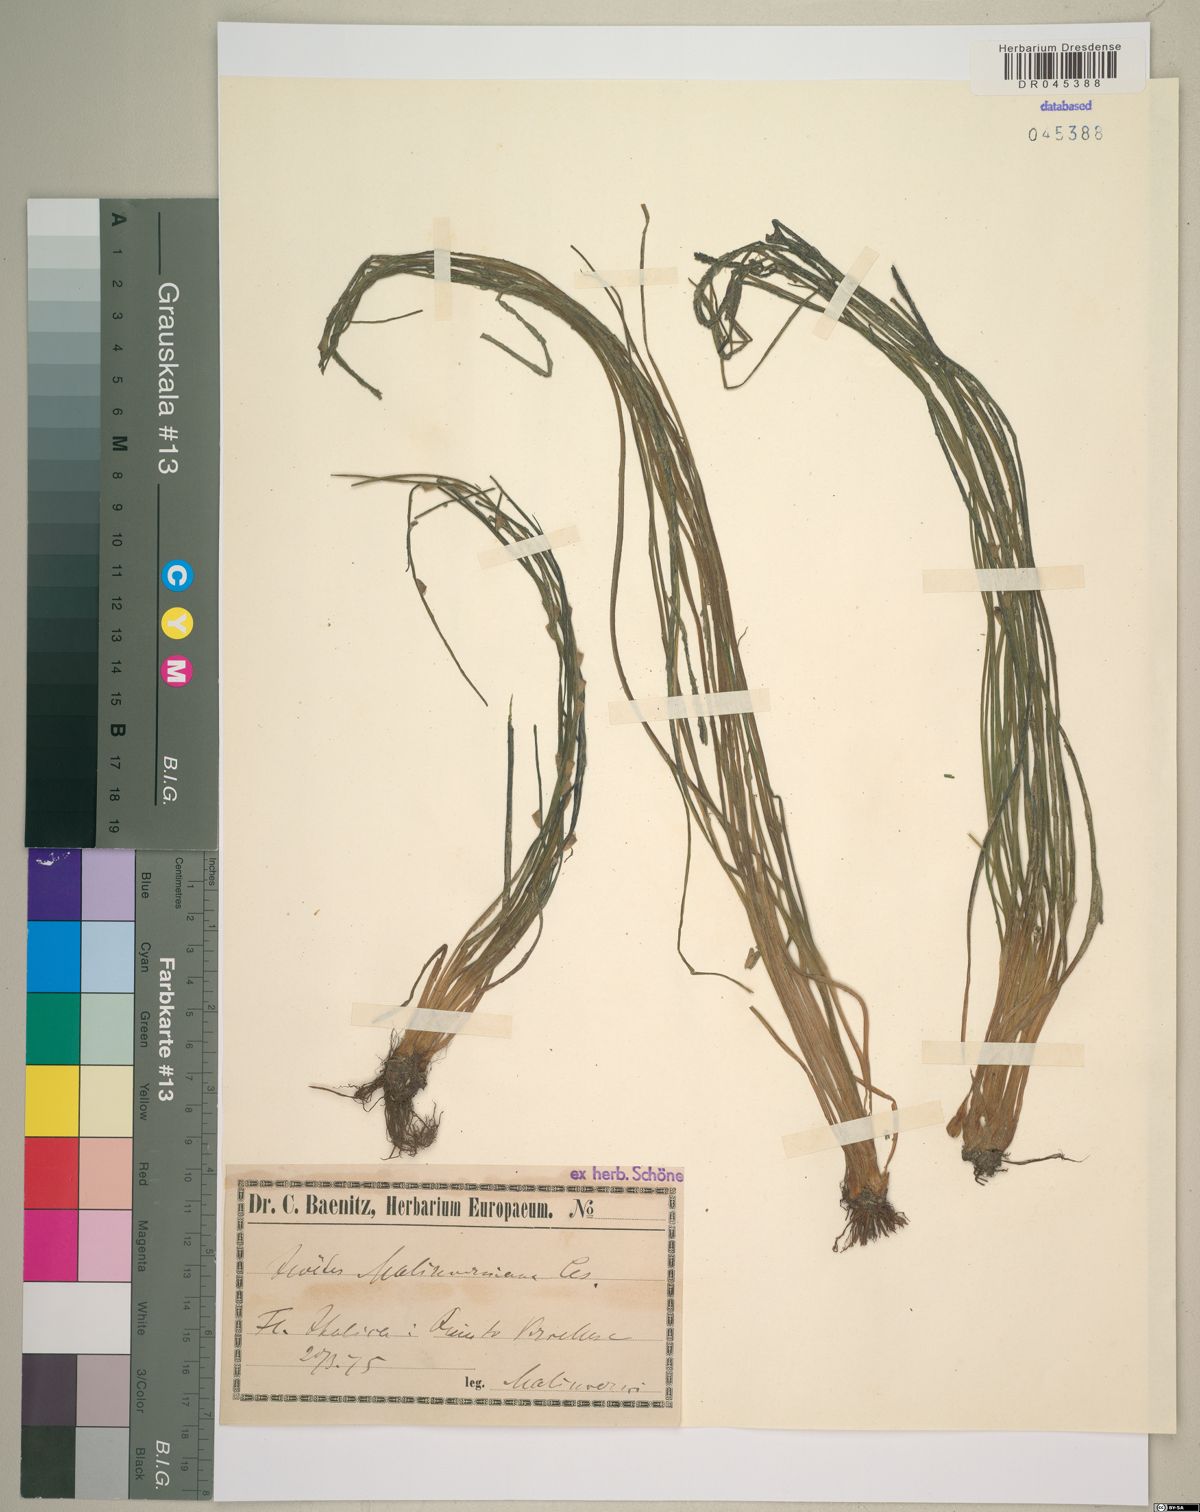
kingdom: Plantae
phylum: Tracheophyta
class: Lycopodiopsida
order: Isoetales
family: Isoetaceae
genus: Isoetes
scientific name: Isoetes malinverniana
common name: Piedmont quillwort
